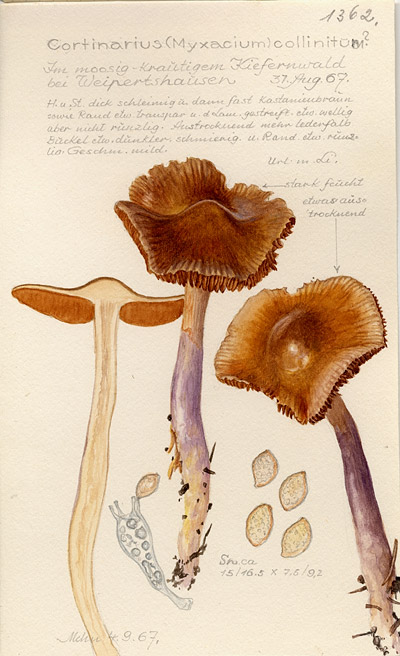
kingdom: Fungi
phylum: Basidiomycota
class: Agaricomycetes
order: Agaricales
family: Cortinariaceae
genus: Cortinarius
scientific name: Cortinarius collinitus
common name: Blue-girdled webcap
